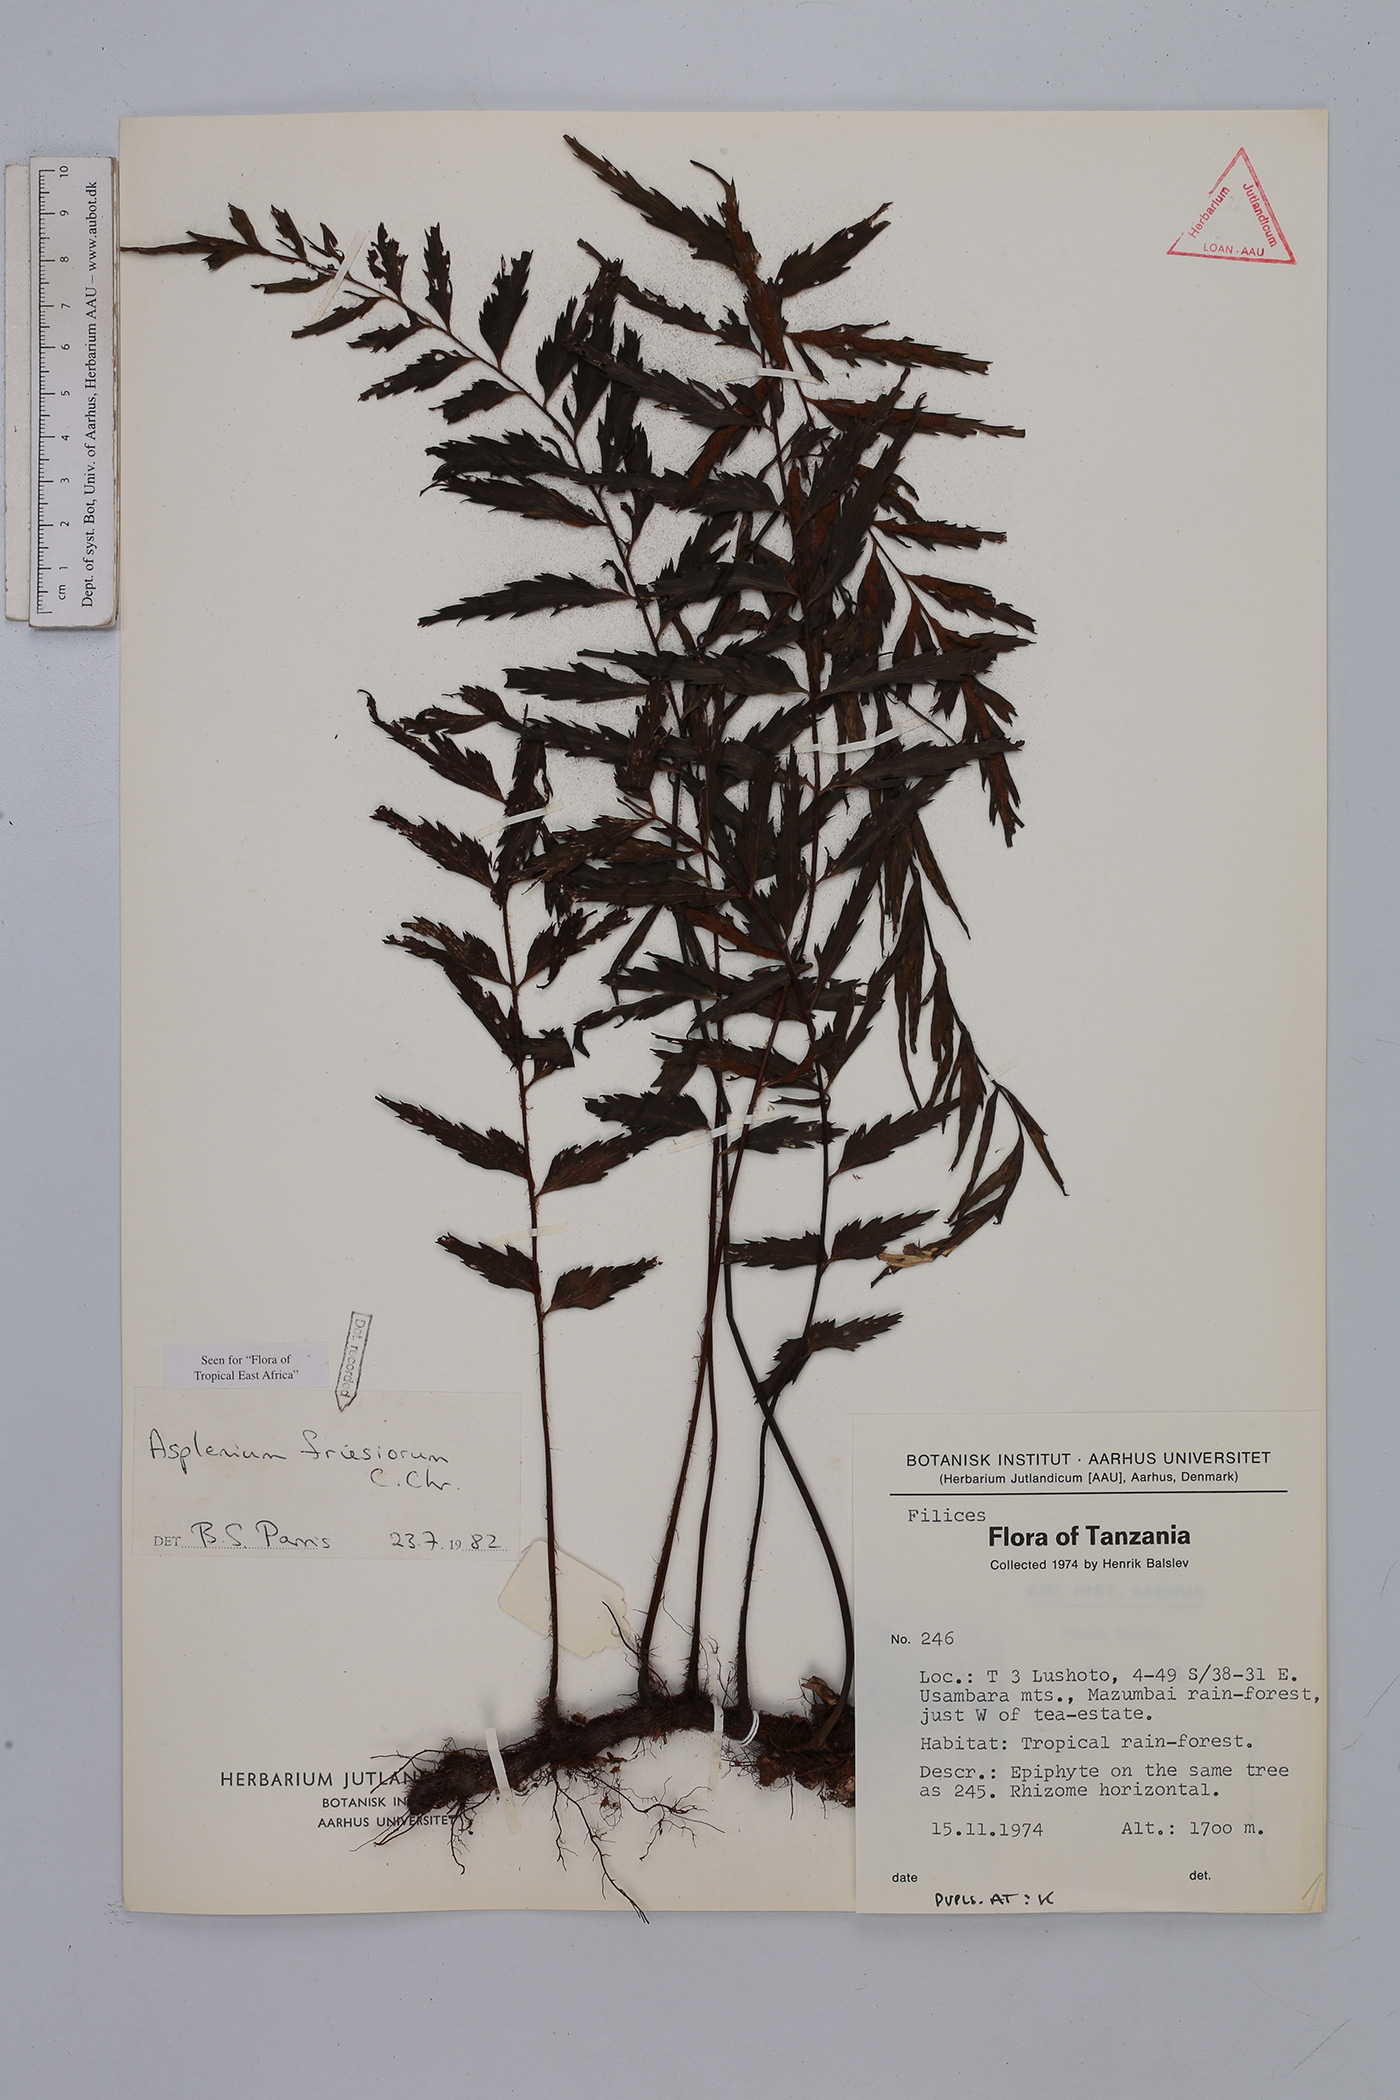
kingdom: Plantae
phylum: Tracheophyta
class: Polypodiopsida
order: Polypodiales
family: Aspleniaceae
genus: Asplenium
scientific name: Asplenium gueinzianum
